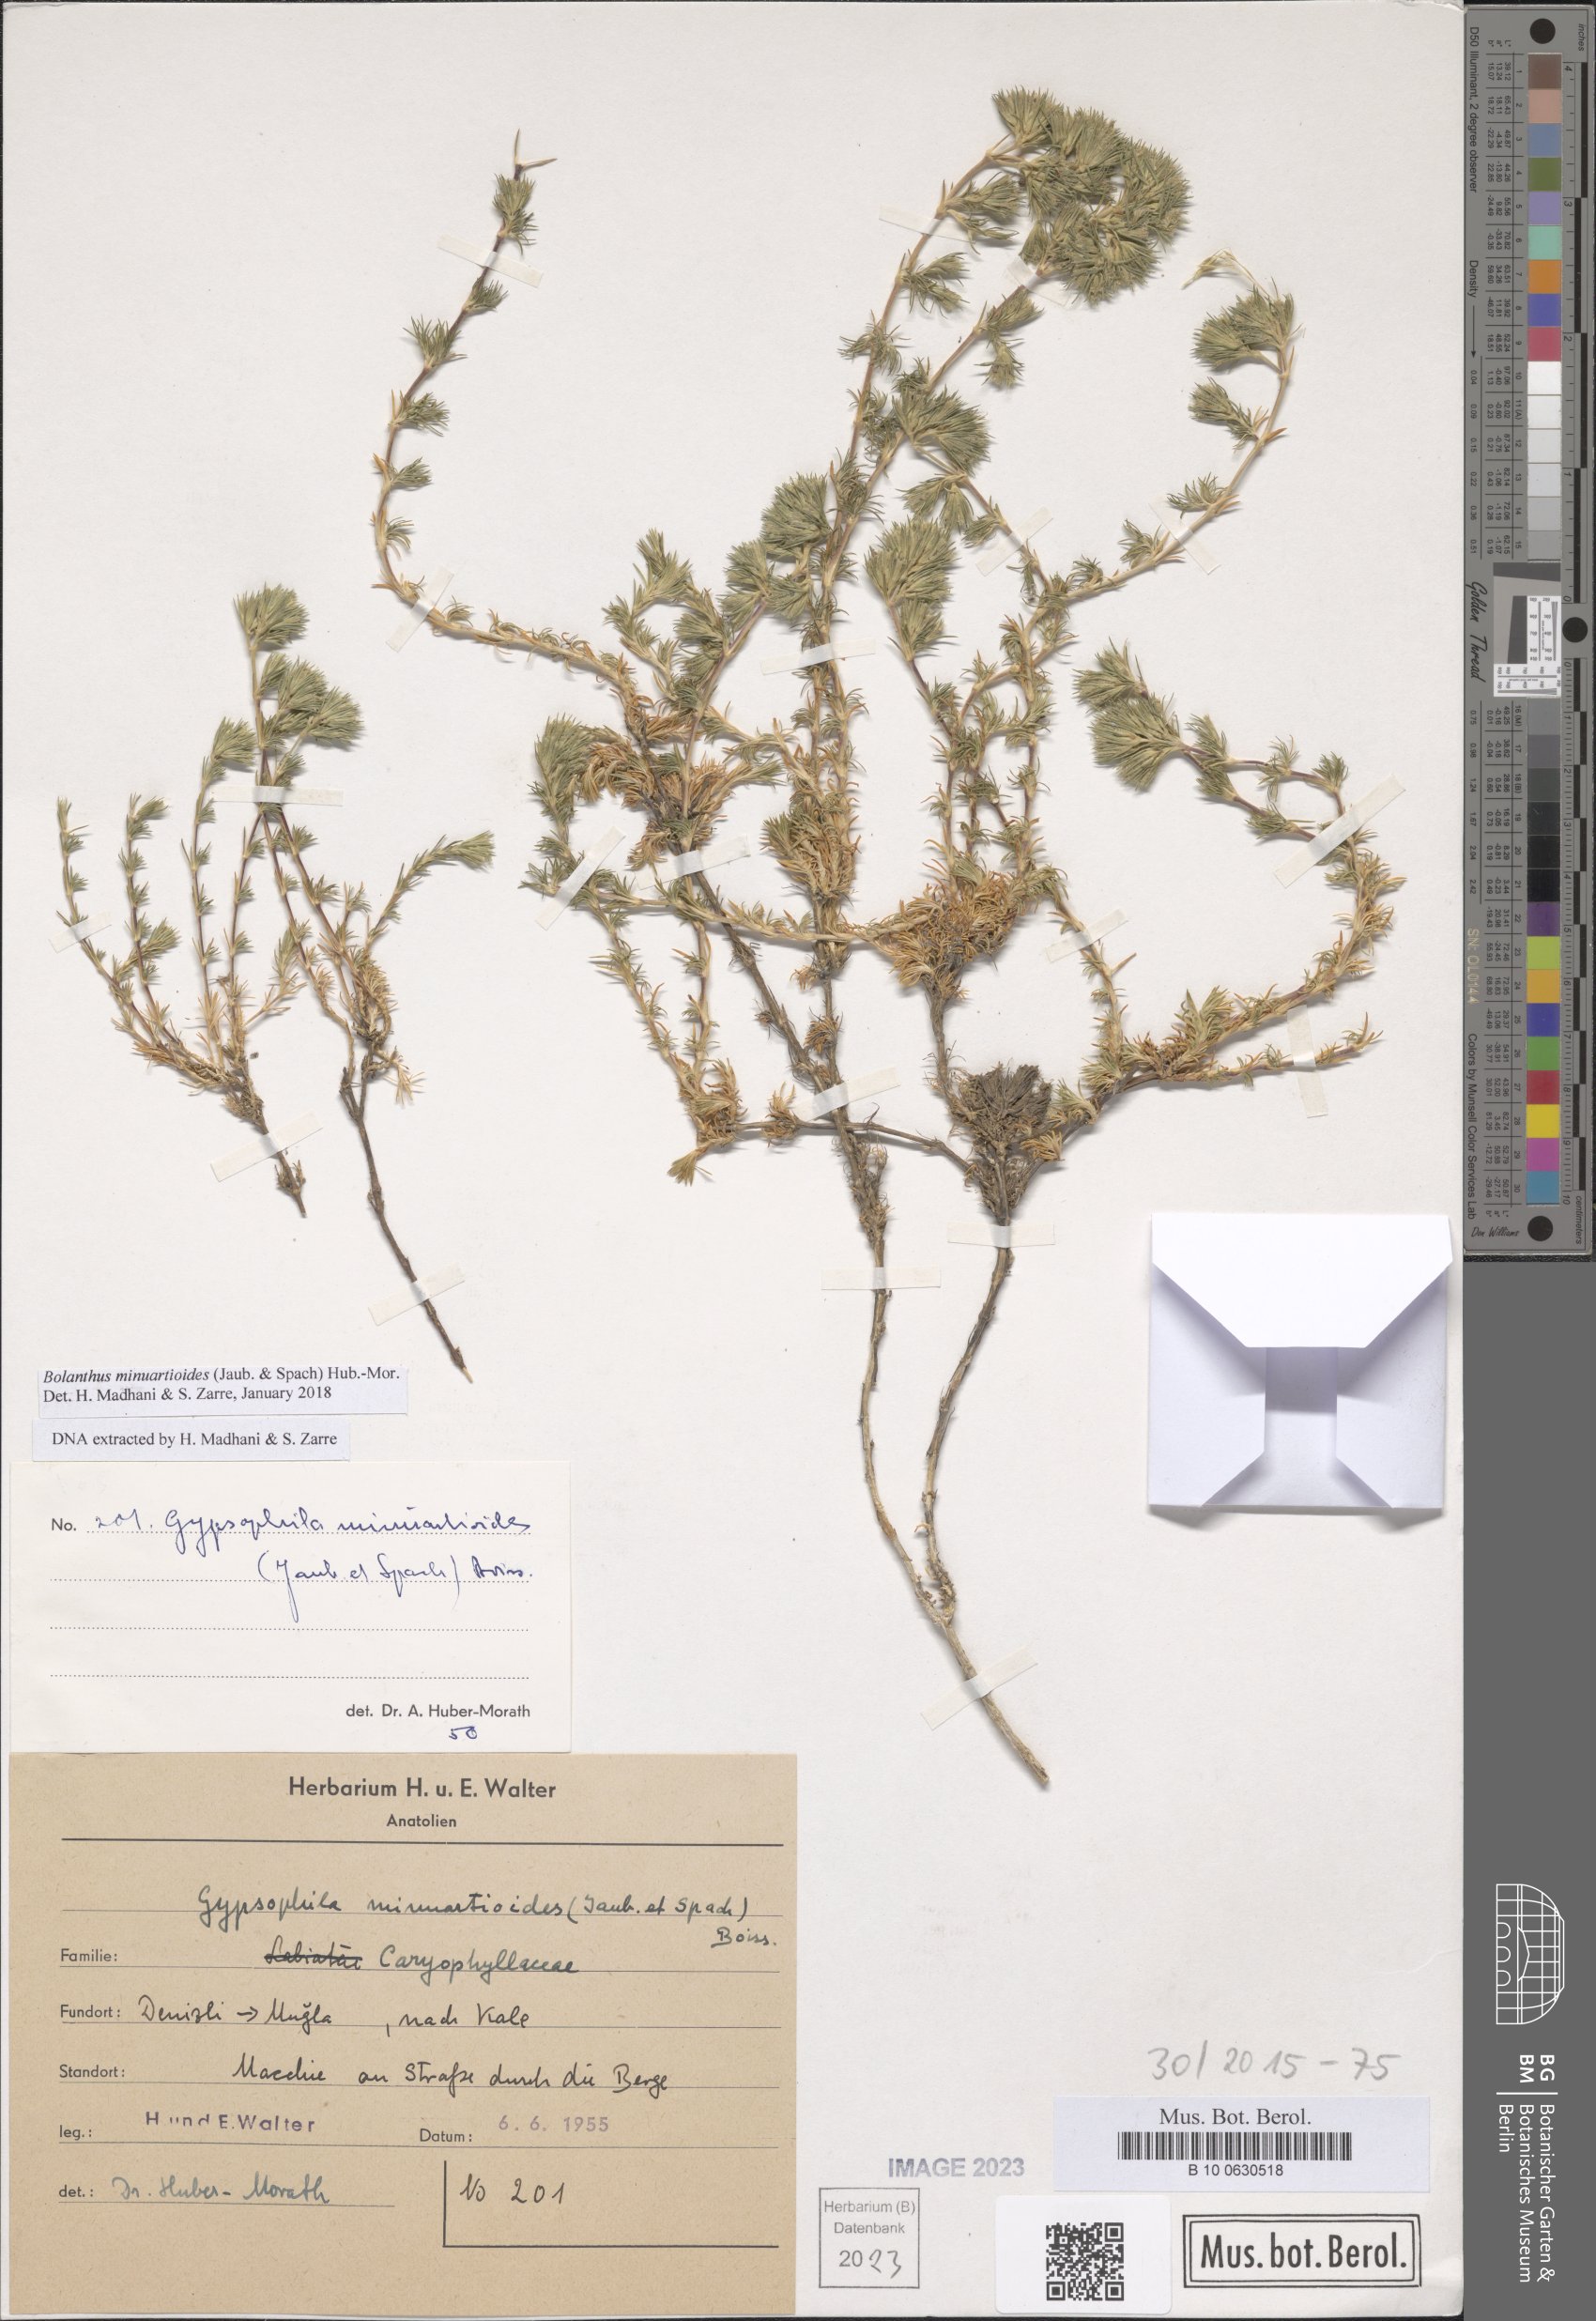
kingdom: Plantae
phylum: Tracheophyta
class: Magnoliopsida
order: Caryophyllales
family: Caryophyllaceae
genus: Bolanthus
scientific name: Bolanthus minuartioides
